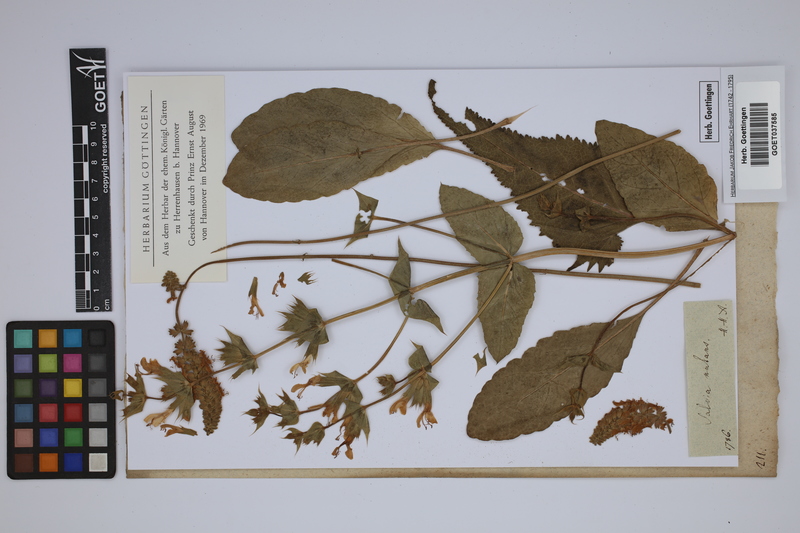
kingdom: Plantae
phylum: Tracheophyta
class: Magnoliopsida
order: Lamiales
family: Lamiaceae
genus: Salvia
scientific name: Salvia nutans
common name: Nodding sage
